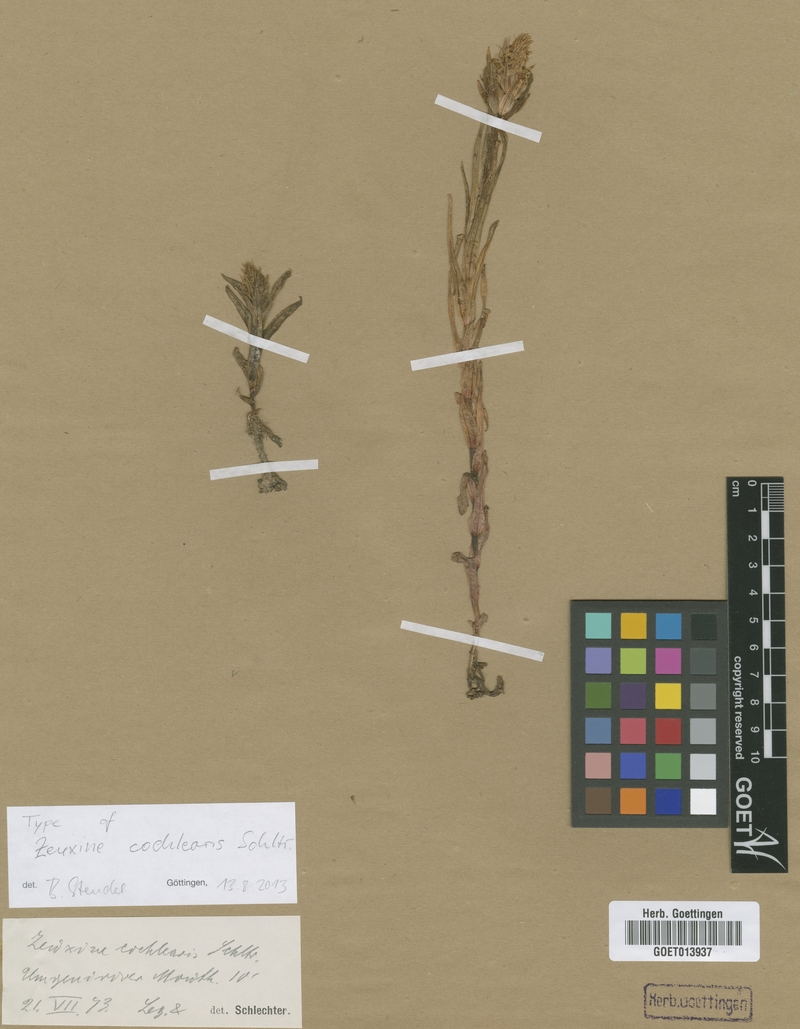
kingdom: Plantae
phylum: Tracheophyta
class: Liliopsida
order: Asparagales
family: Orchidaceae
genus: Zeuxine
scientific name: Zeuxine africana
